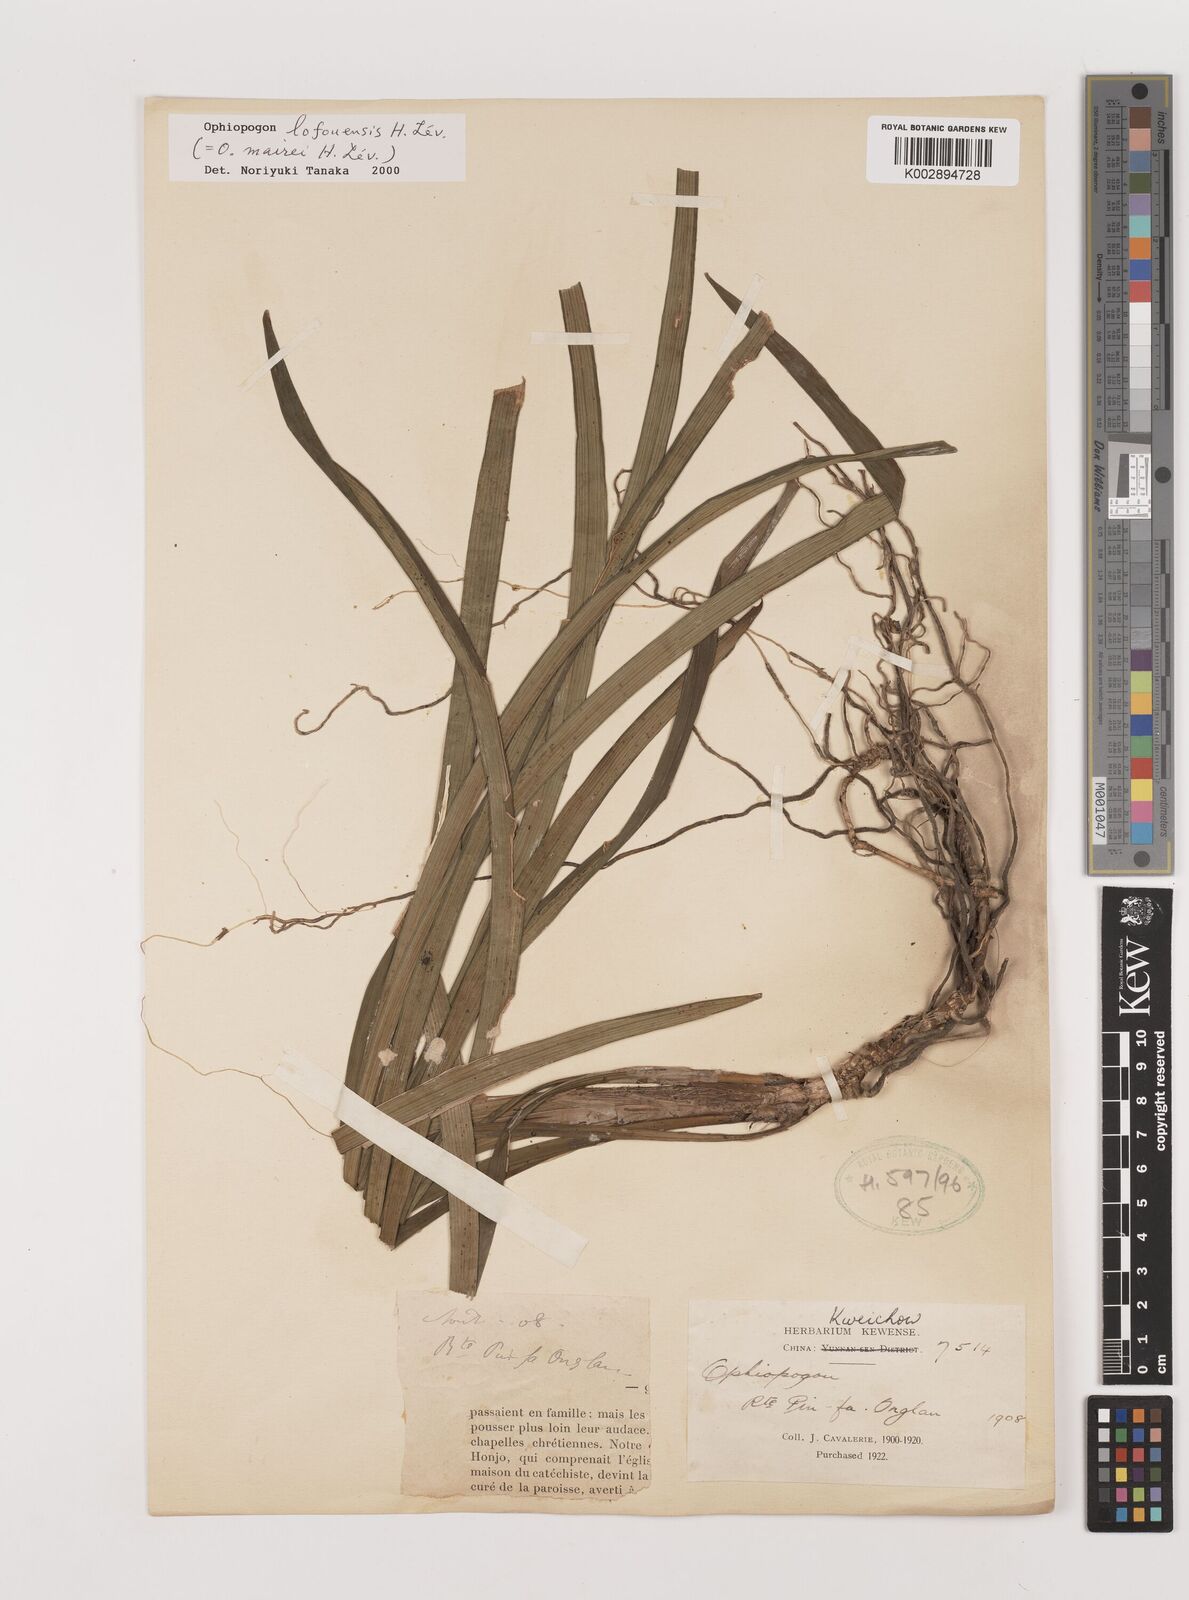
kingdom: Plantae
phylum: Tracheophyta
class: Liliopsida
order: Asparagales
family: Asparagaceae
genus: Ophiopogon
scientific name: Ophiopogon bodinieri
